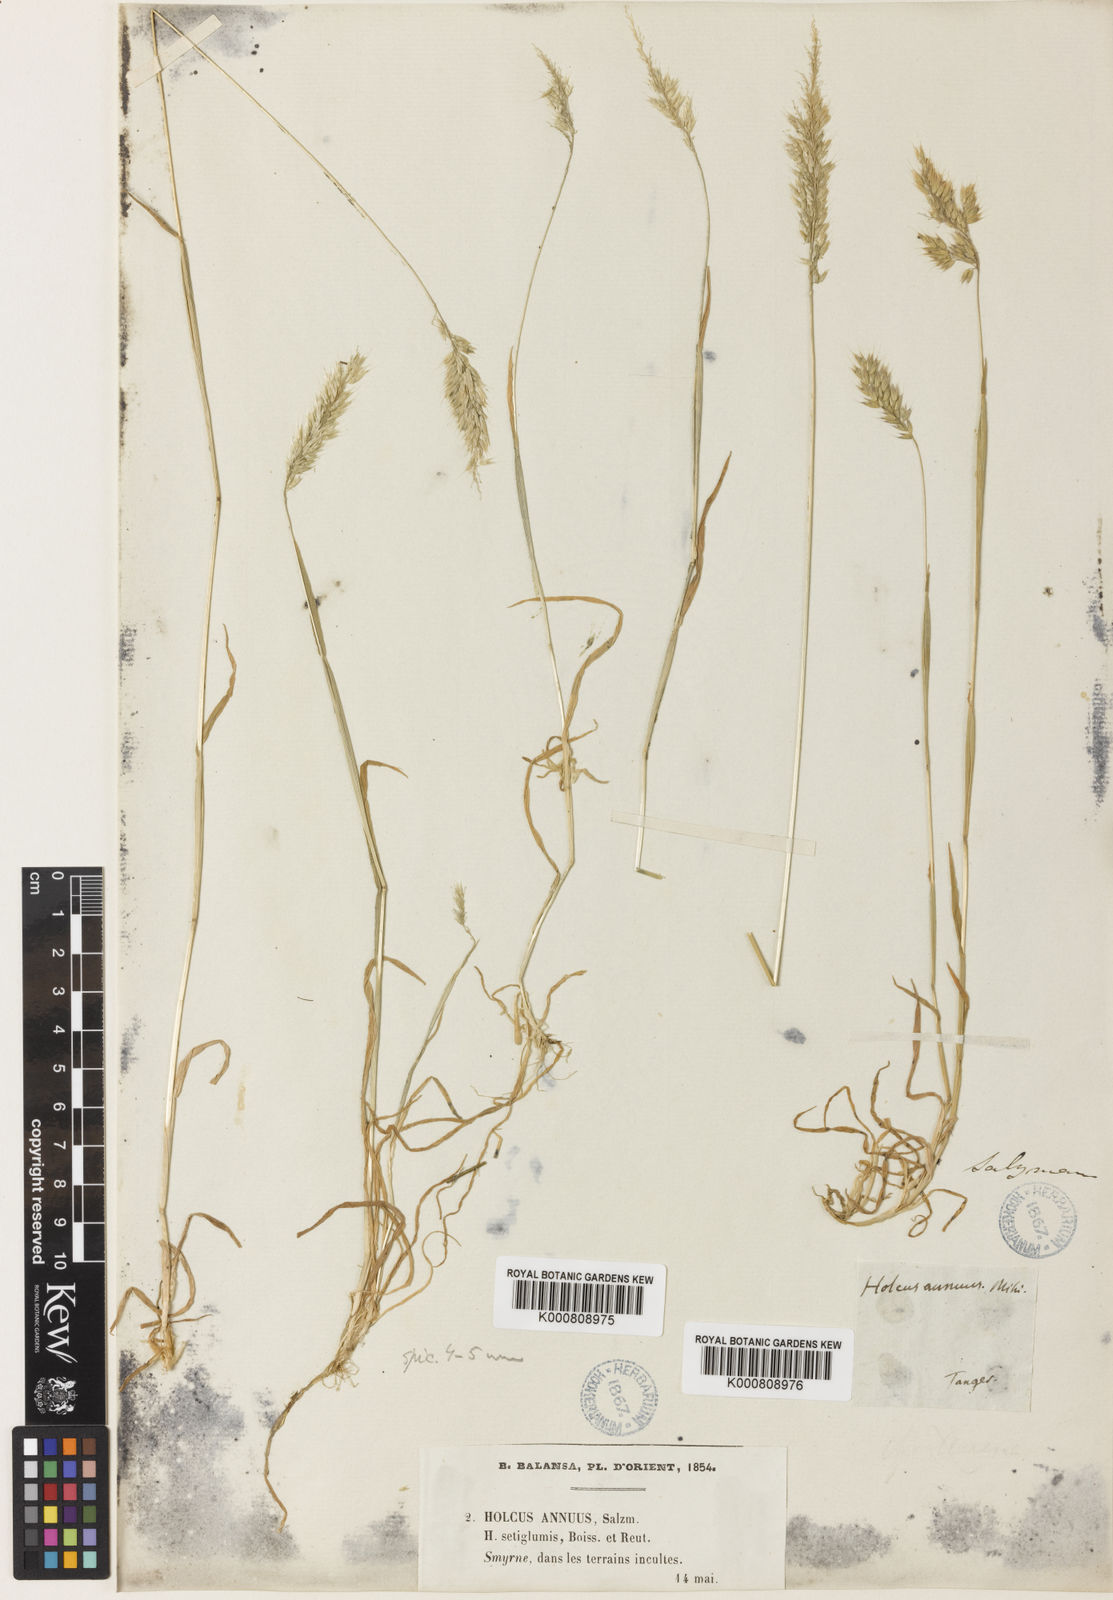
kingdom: Plantae
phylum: Tracheophyta
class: Liliopsida
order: Poales
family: Poaceae
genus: Holcus
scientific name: Holcus annuus
